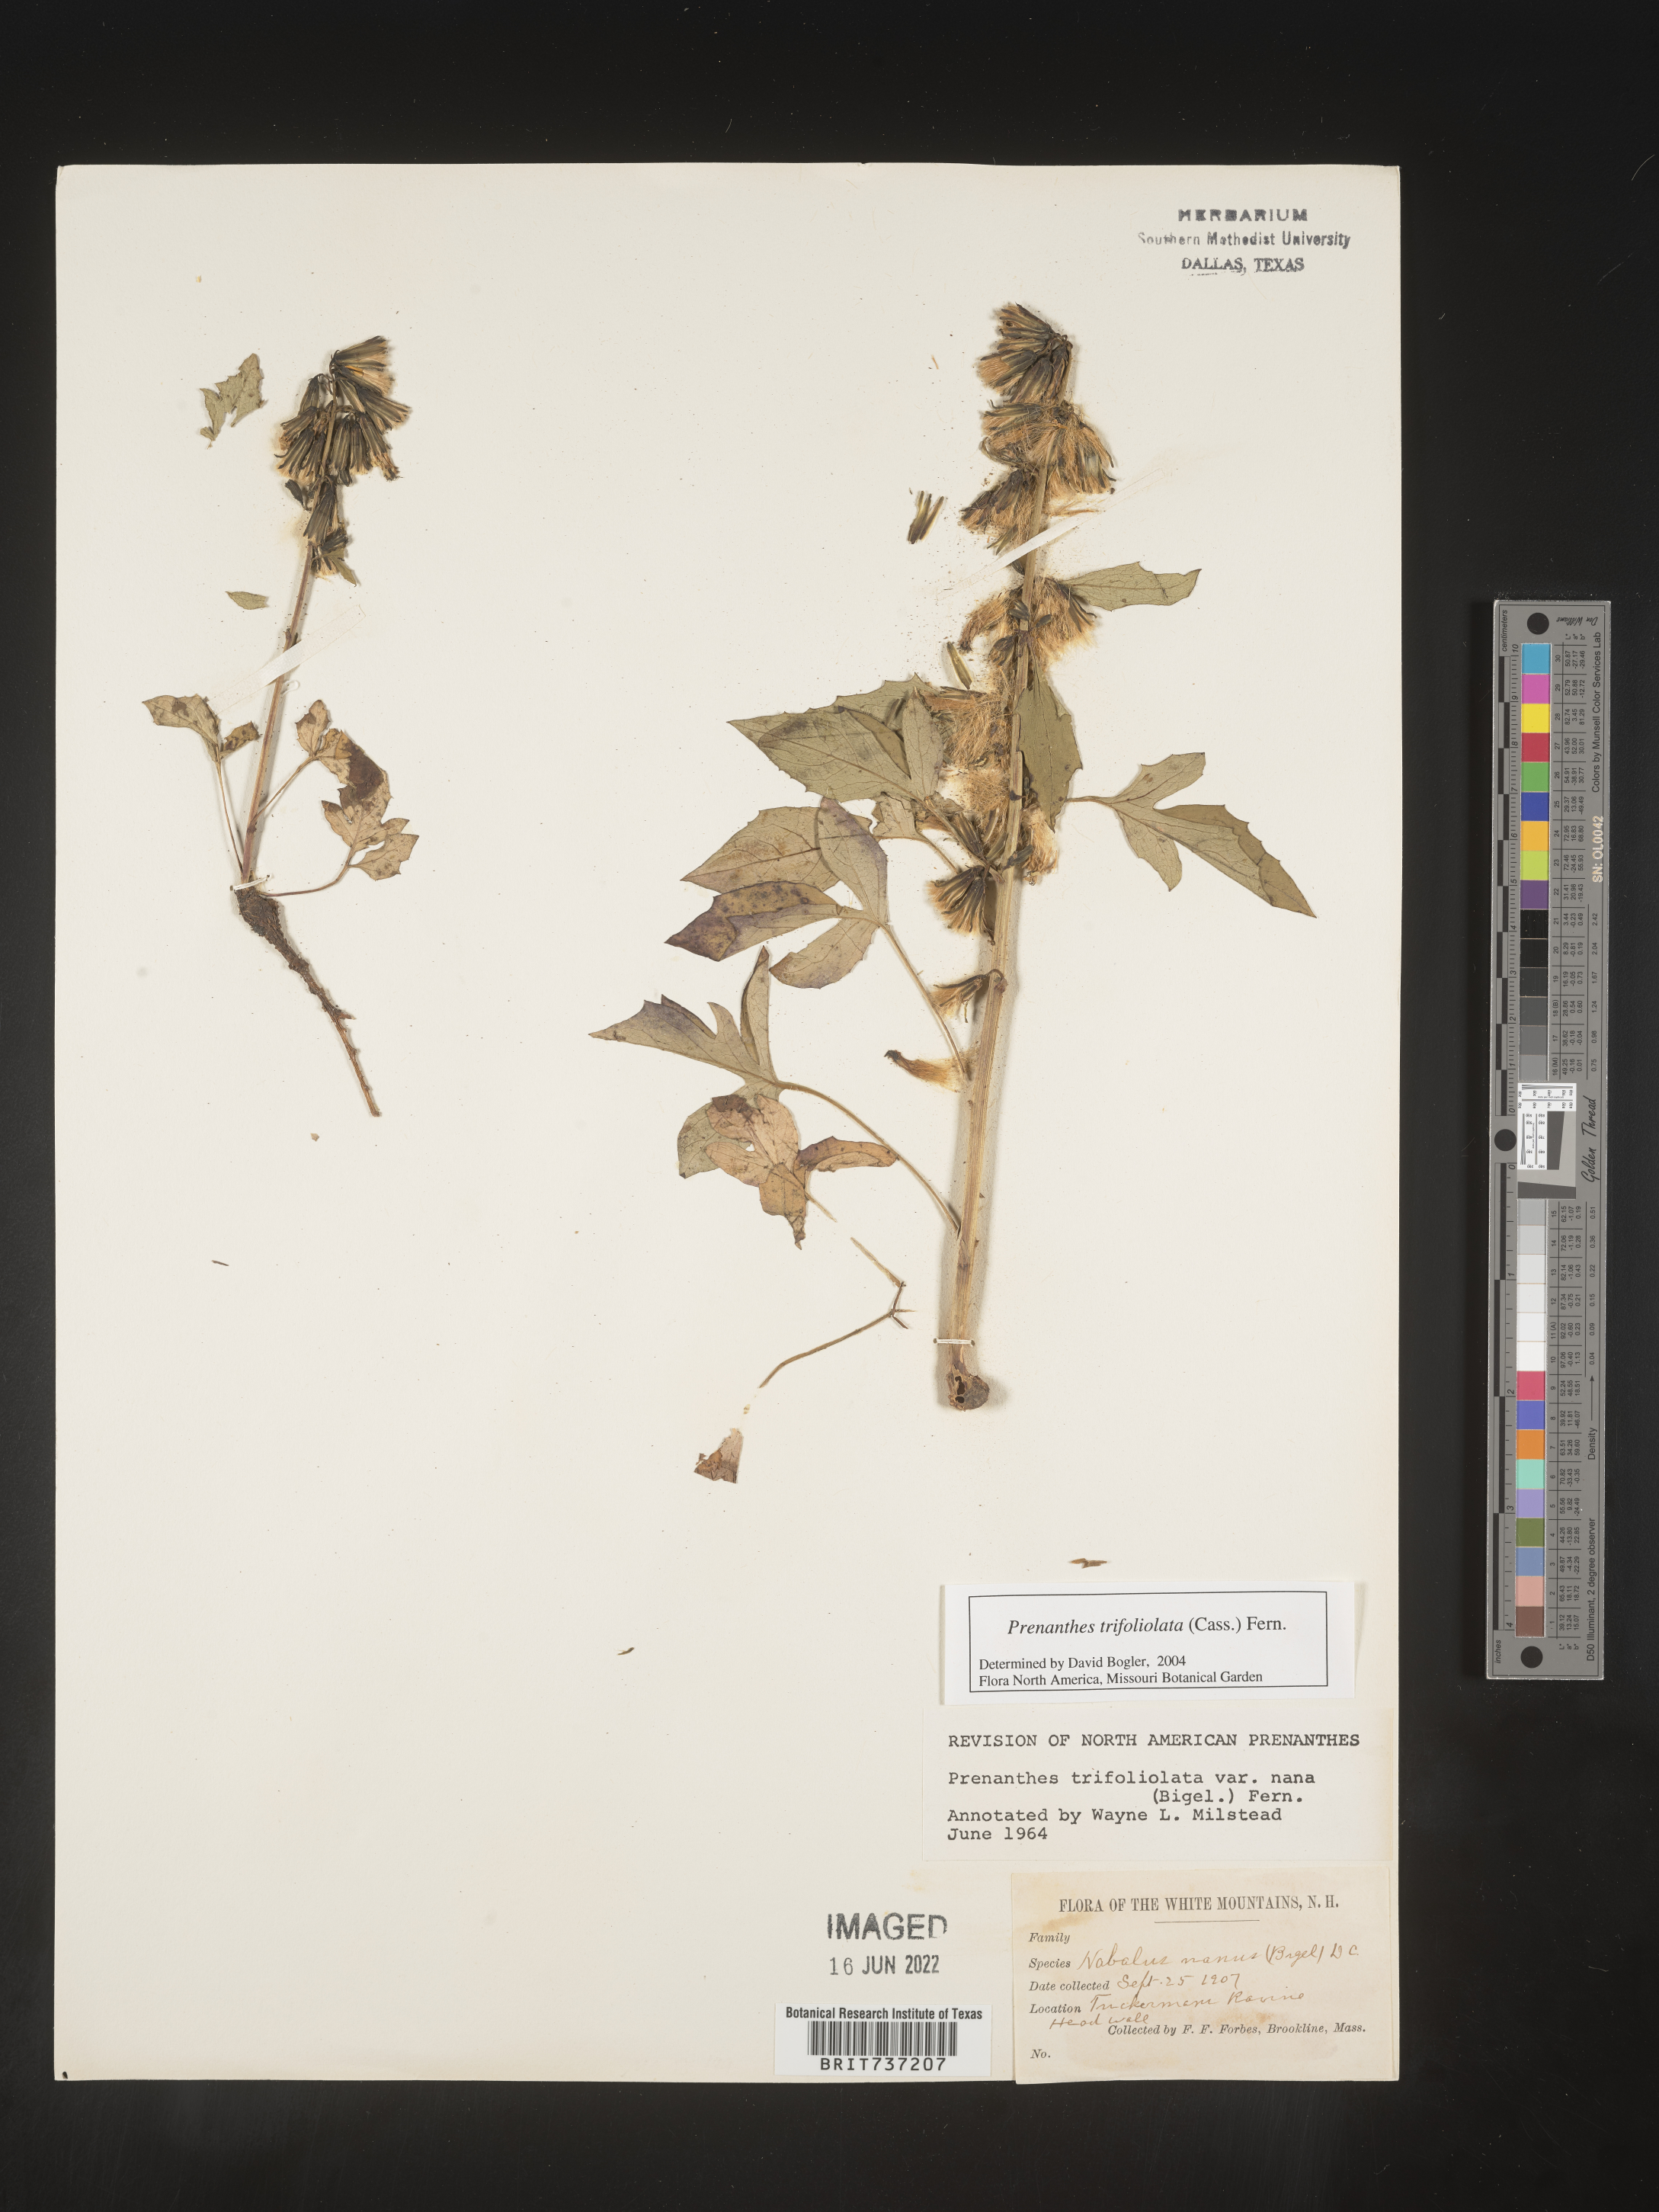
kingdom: Plantae
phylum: Tracheophyta
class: Magnoliopsida
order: Asterales
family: Asteraceae
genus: Nabalus
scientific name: Nabalus trifoliolatus
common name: Gall-of-the-earth
